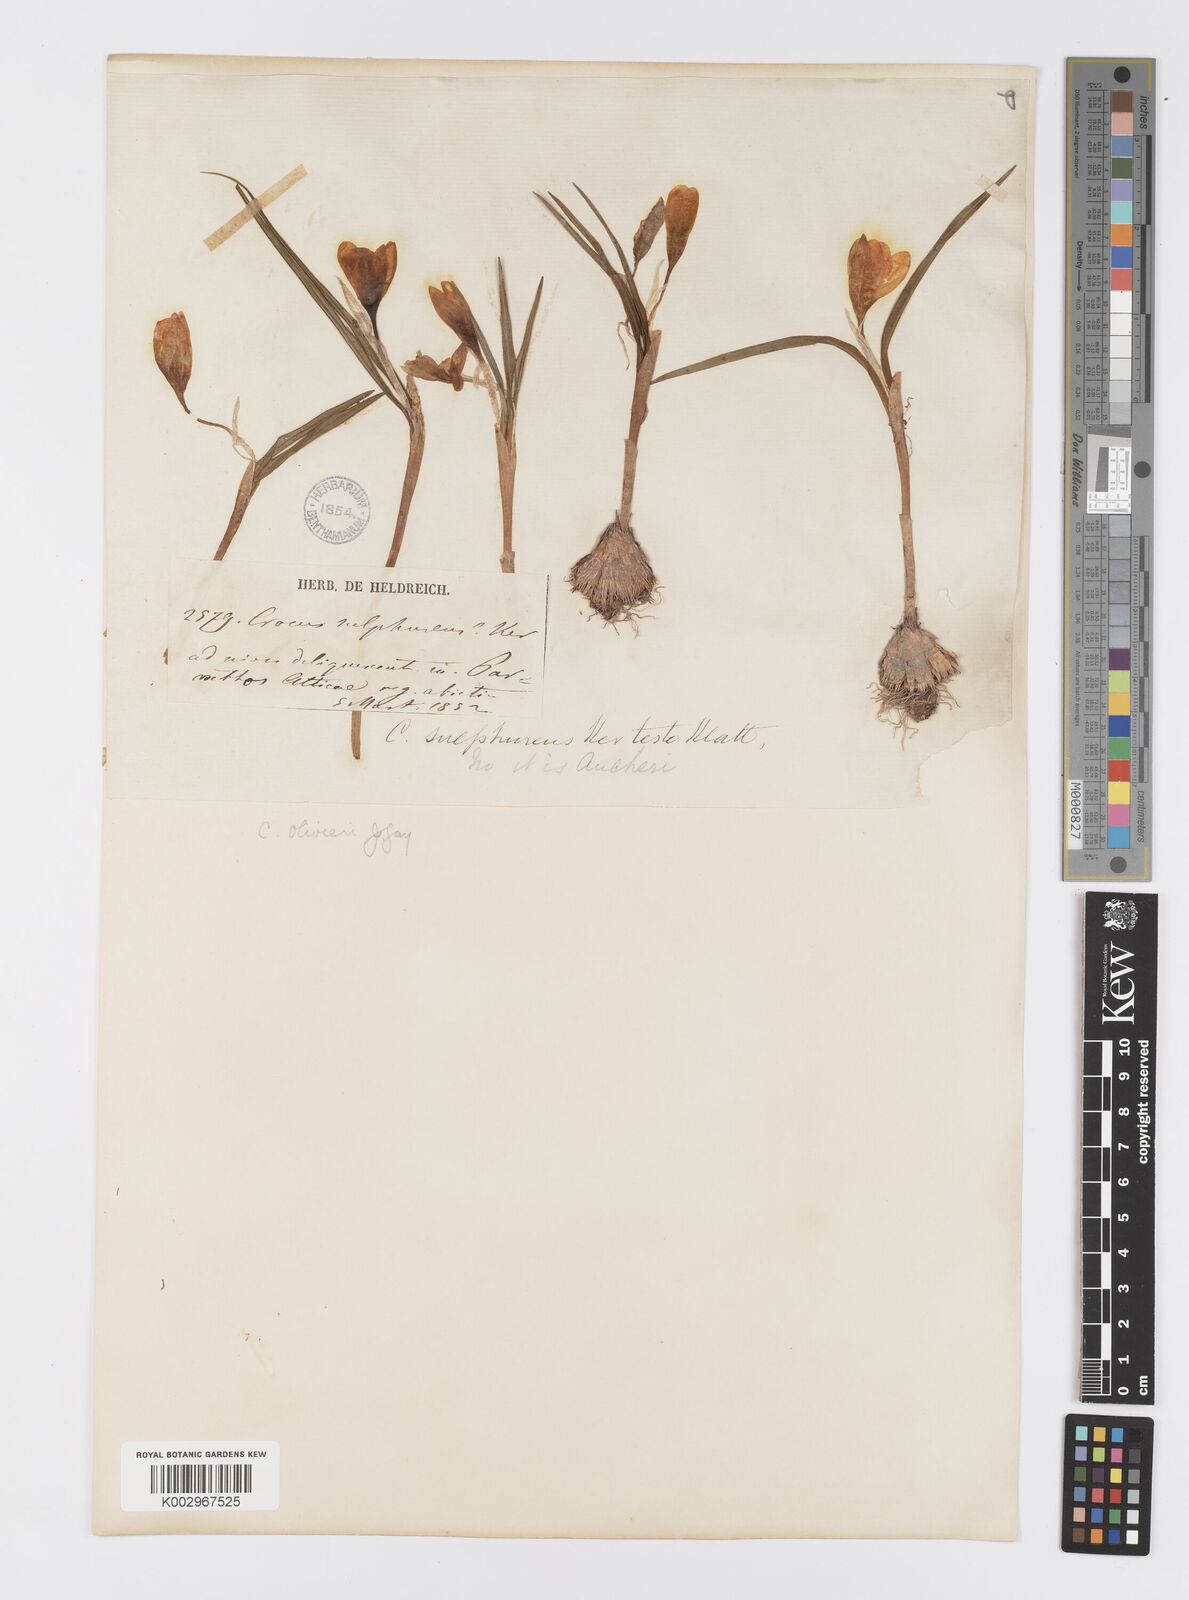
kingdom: Plantae
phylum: Tracheophyta
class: Liliopsida
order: Asparagales
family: Iridaceae
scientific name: Iridaceae
